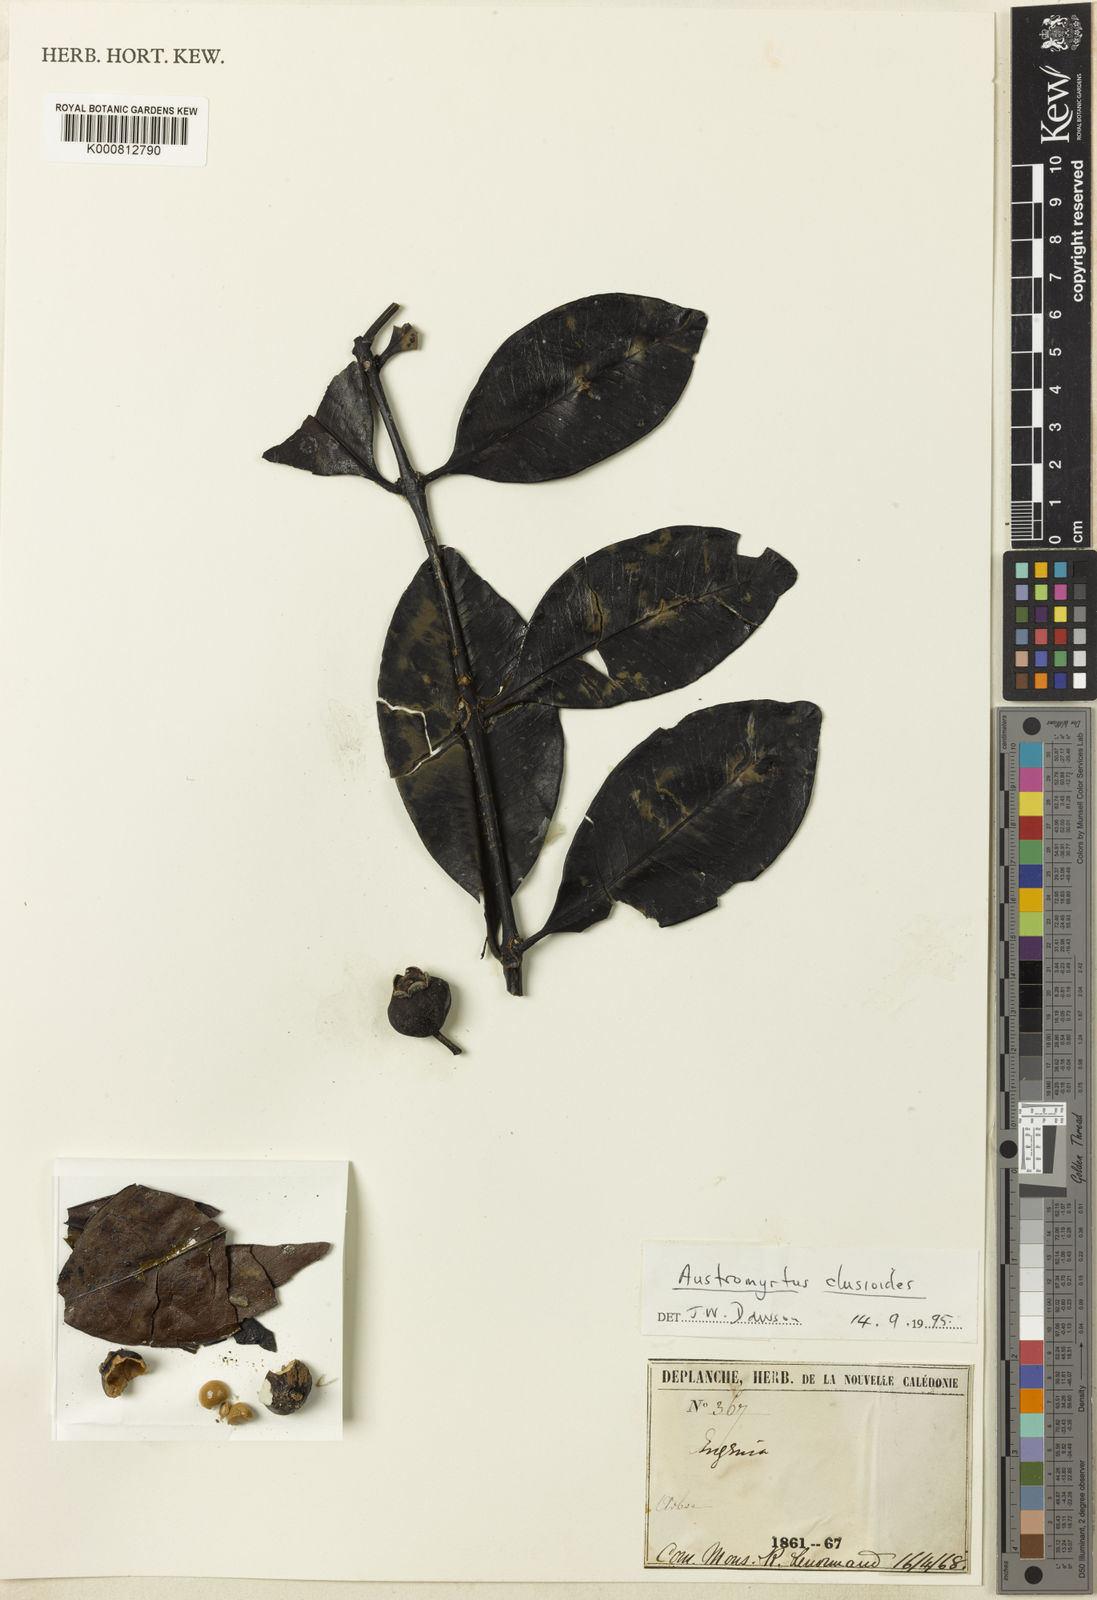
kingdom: Plantae
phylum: Tracheophyta
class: Magnoliopsida
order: Myrtales
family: Myrtaceae
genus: Gossia
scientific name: Gossia clusioides
